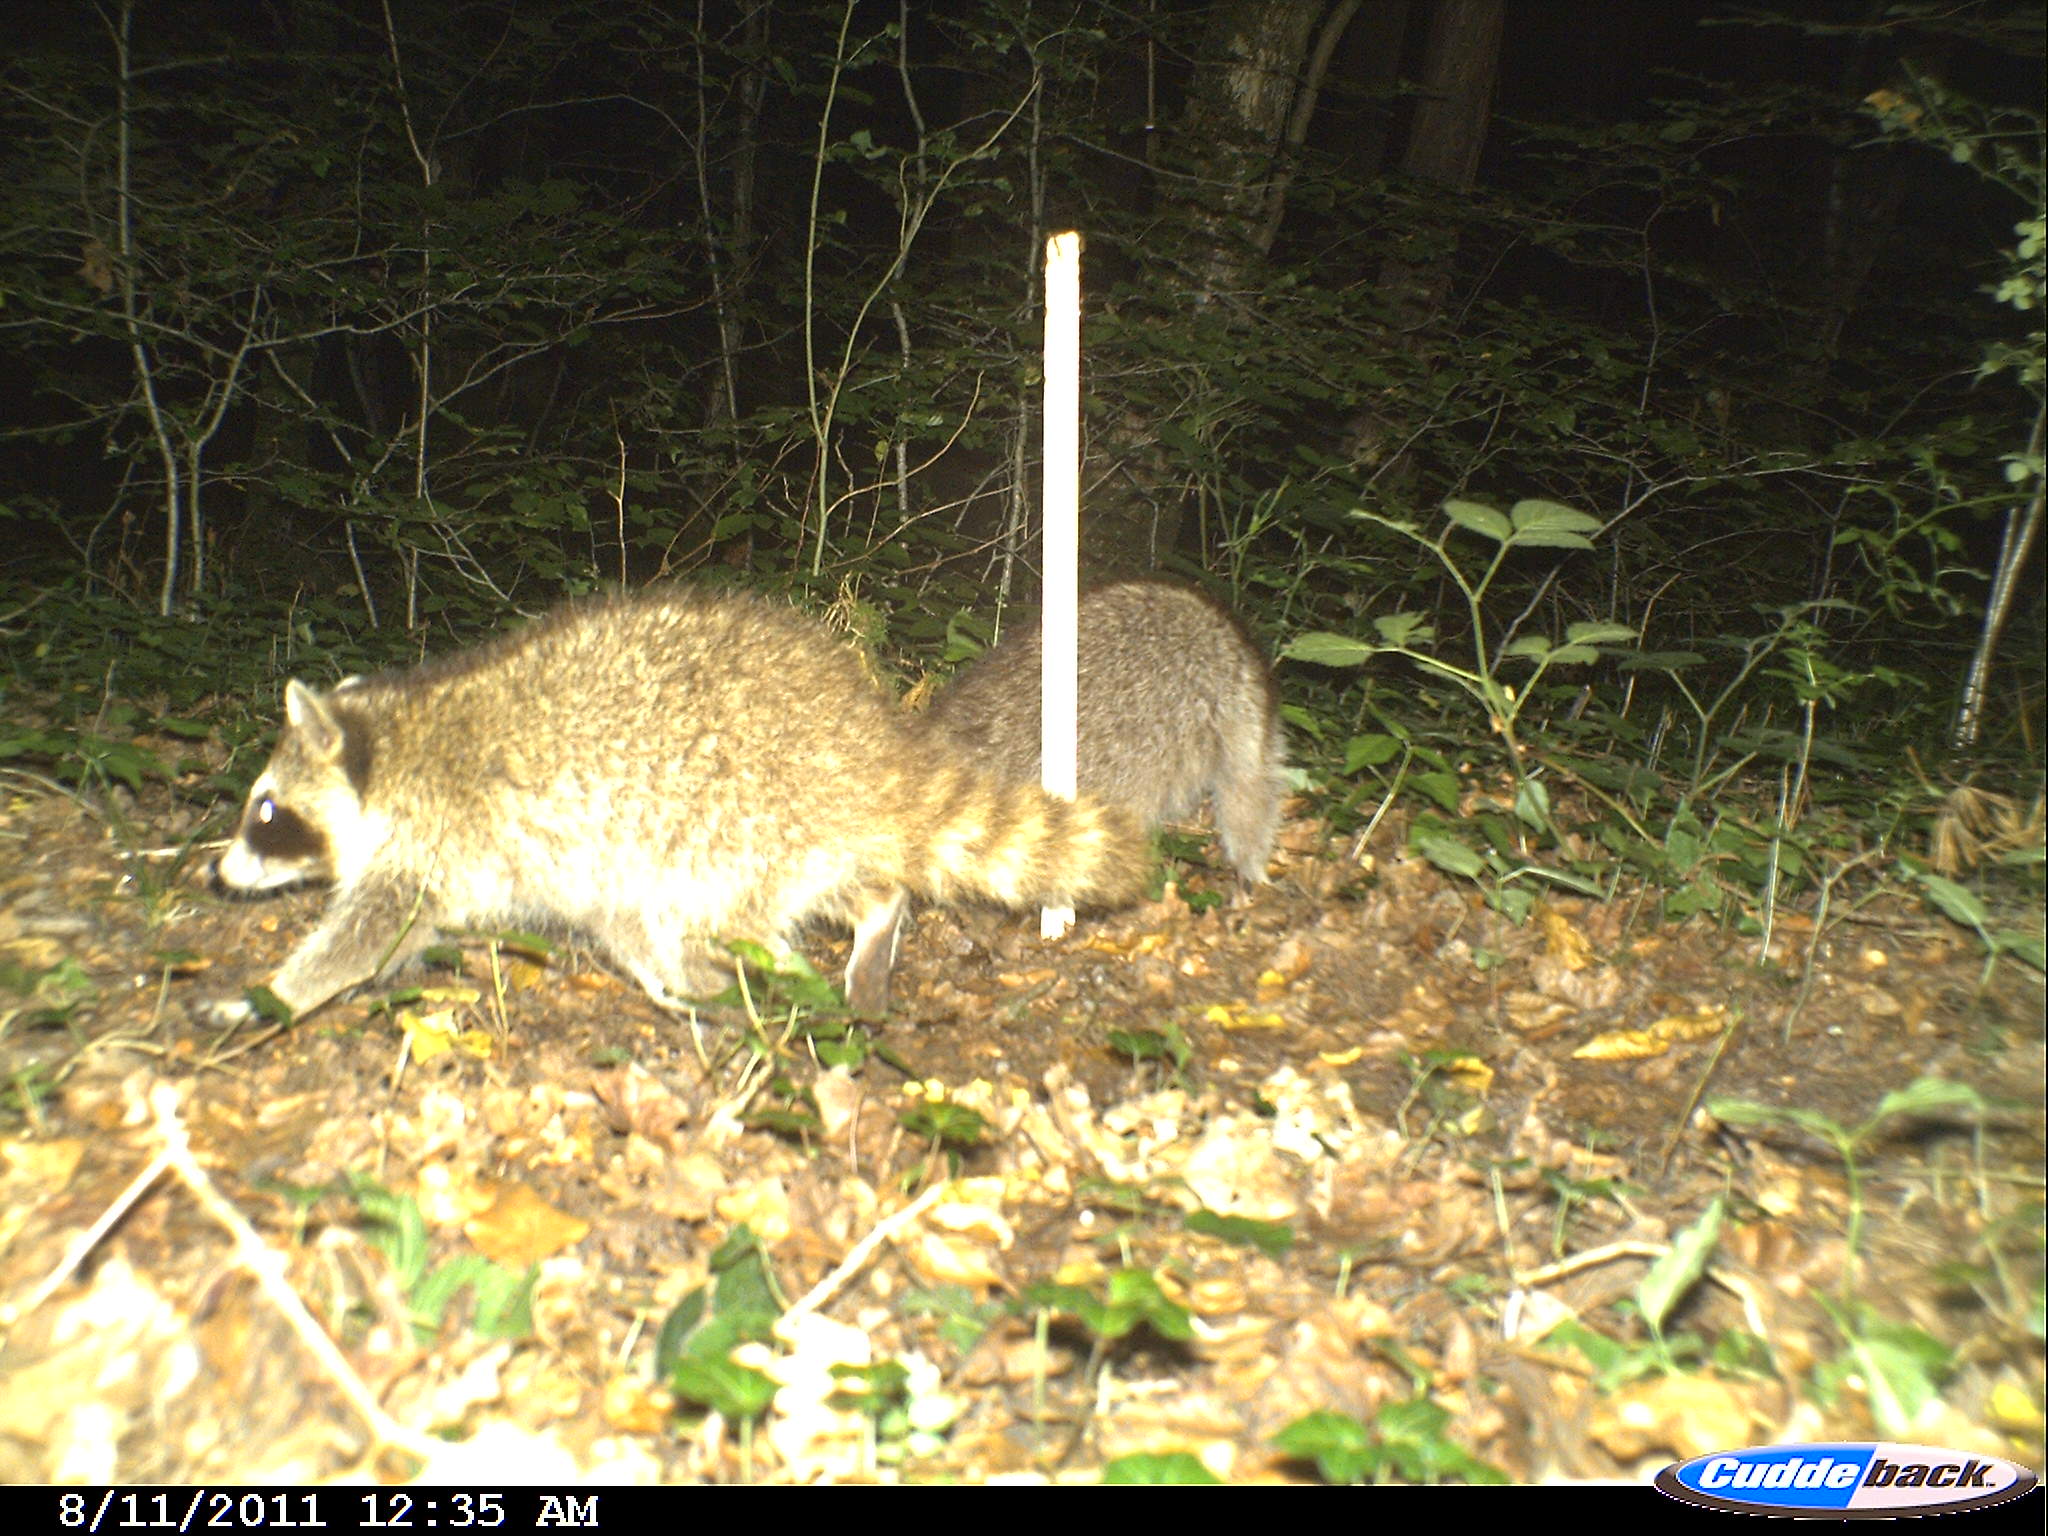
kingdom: Animalia
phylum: Chordata
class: Mammalia
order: Carnivora
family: Procyonidae
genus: Procyon
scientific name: Procyon lotor
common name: Raccoon
